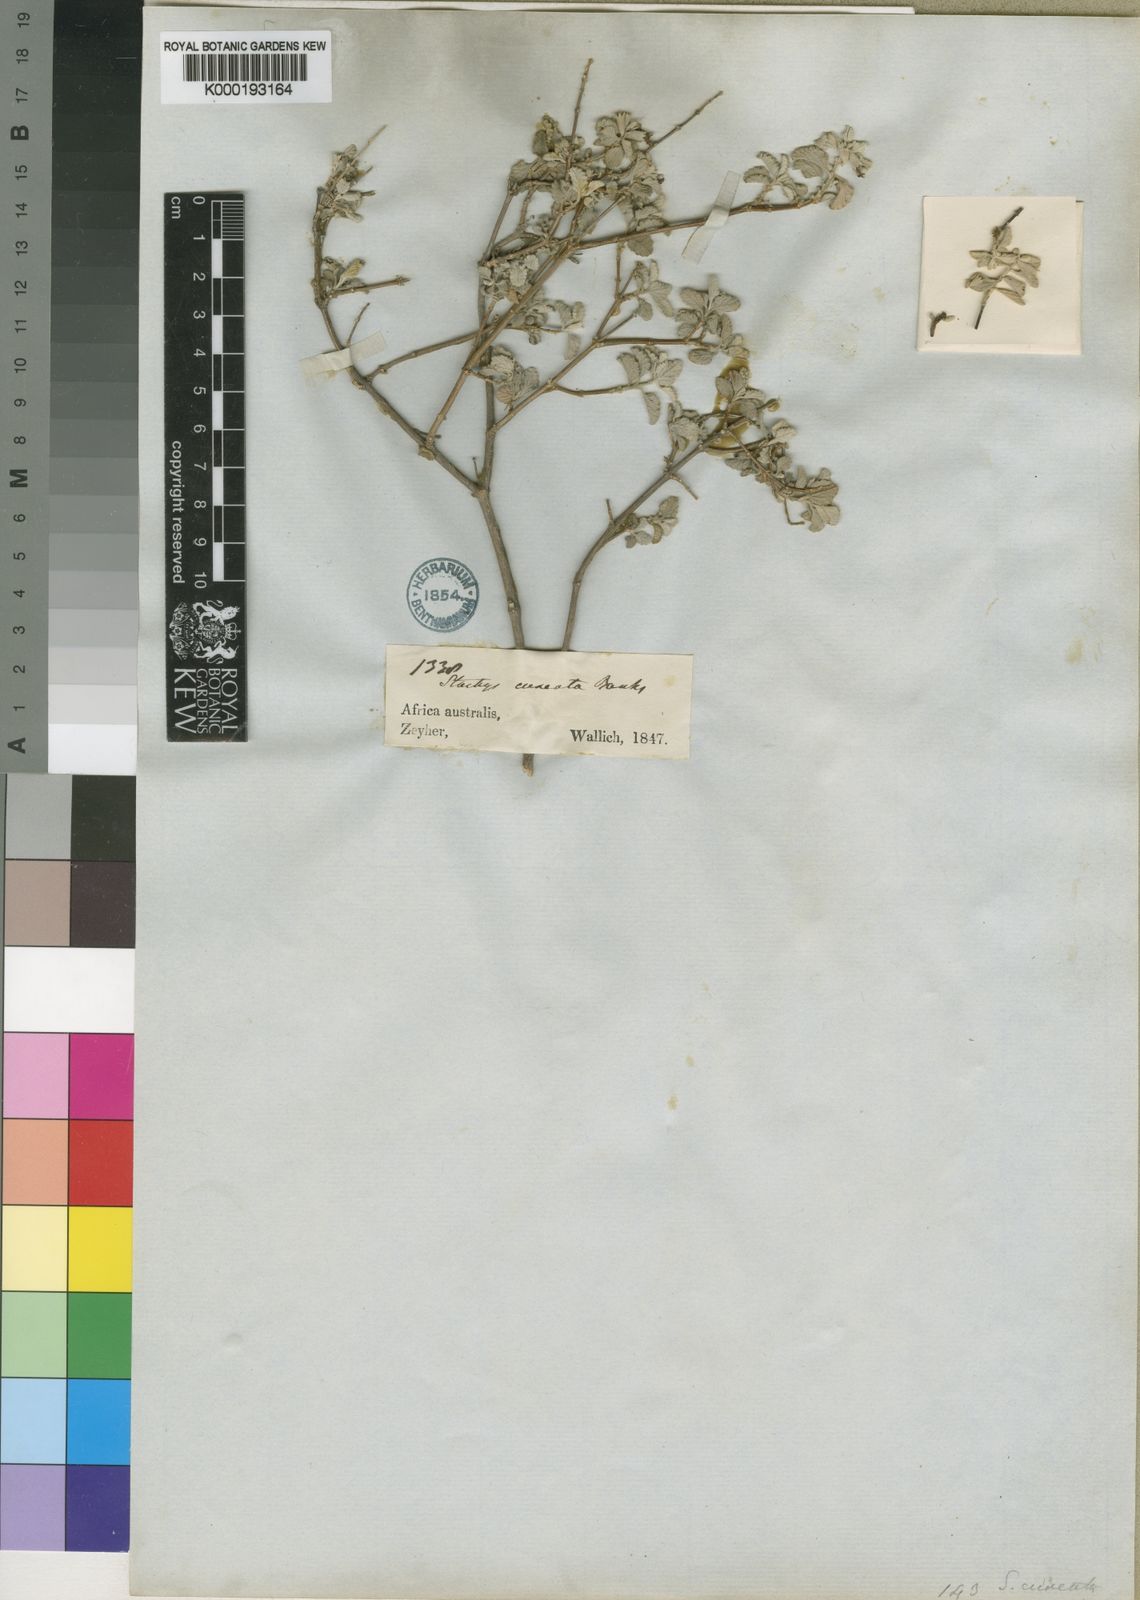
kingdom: Plantae
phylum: Tracheophyta
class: Magnoliopsida
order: Lamiales
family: Lamiaceae
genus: Stachys
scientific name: Stachys zeyheri
